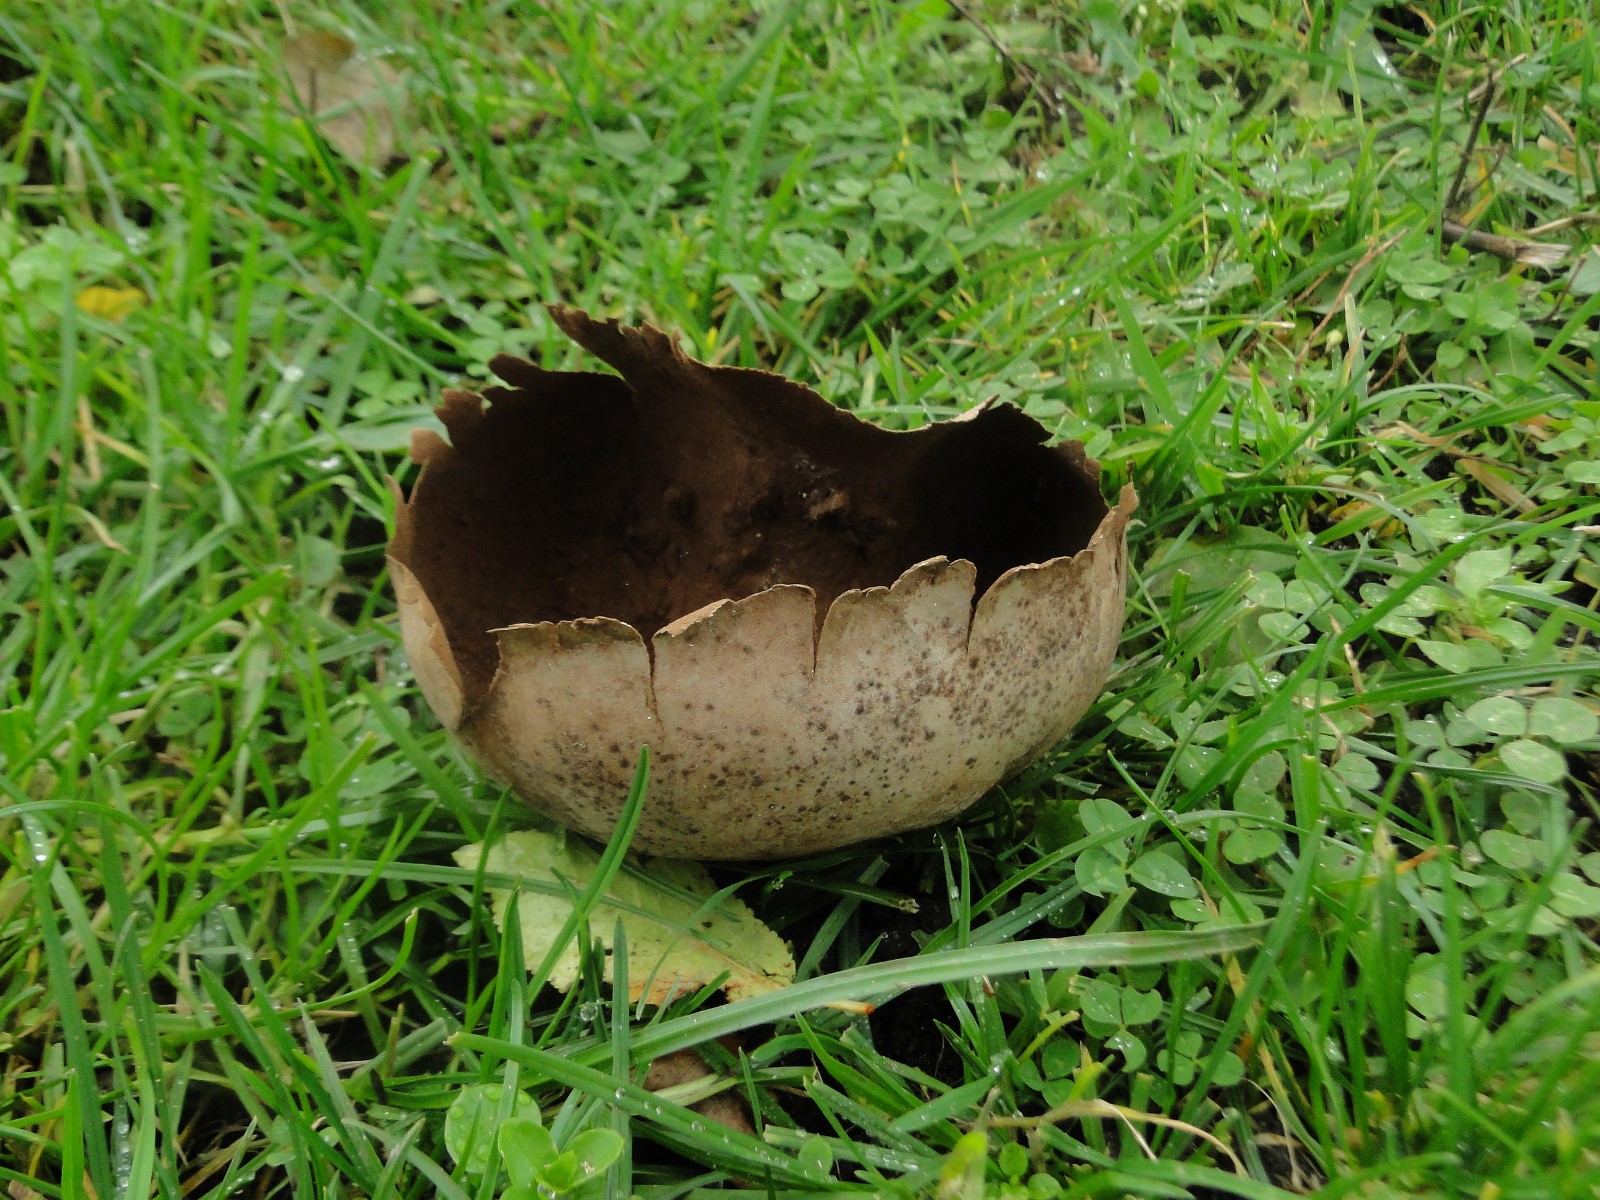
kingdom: Fungi
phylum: Basidiomycota
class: Agaricomycetes
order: Agaricales
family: Lycoperdaceae
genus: Bovistella
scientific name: Bovistella utriformis
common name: skællet støvbold
